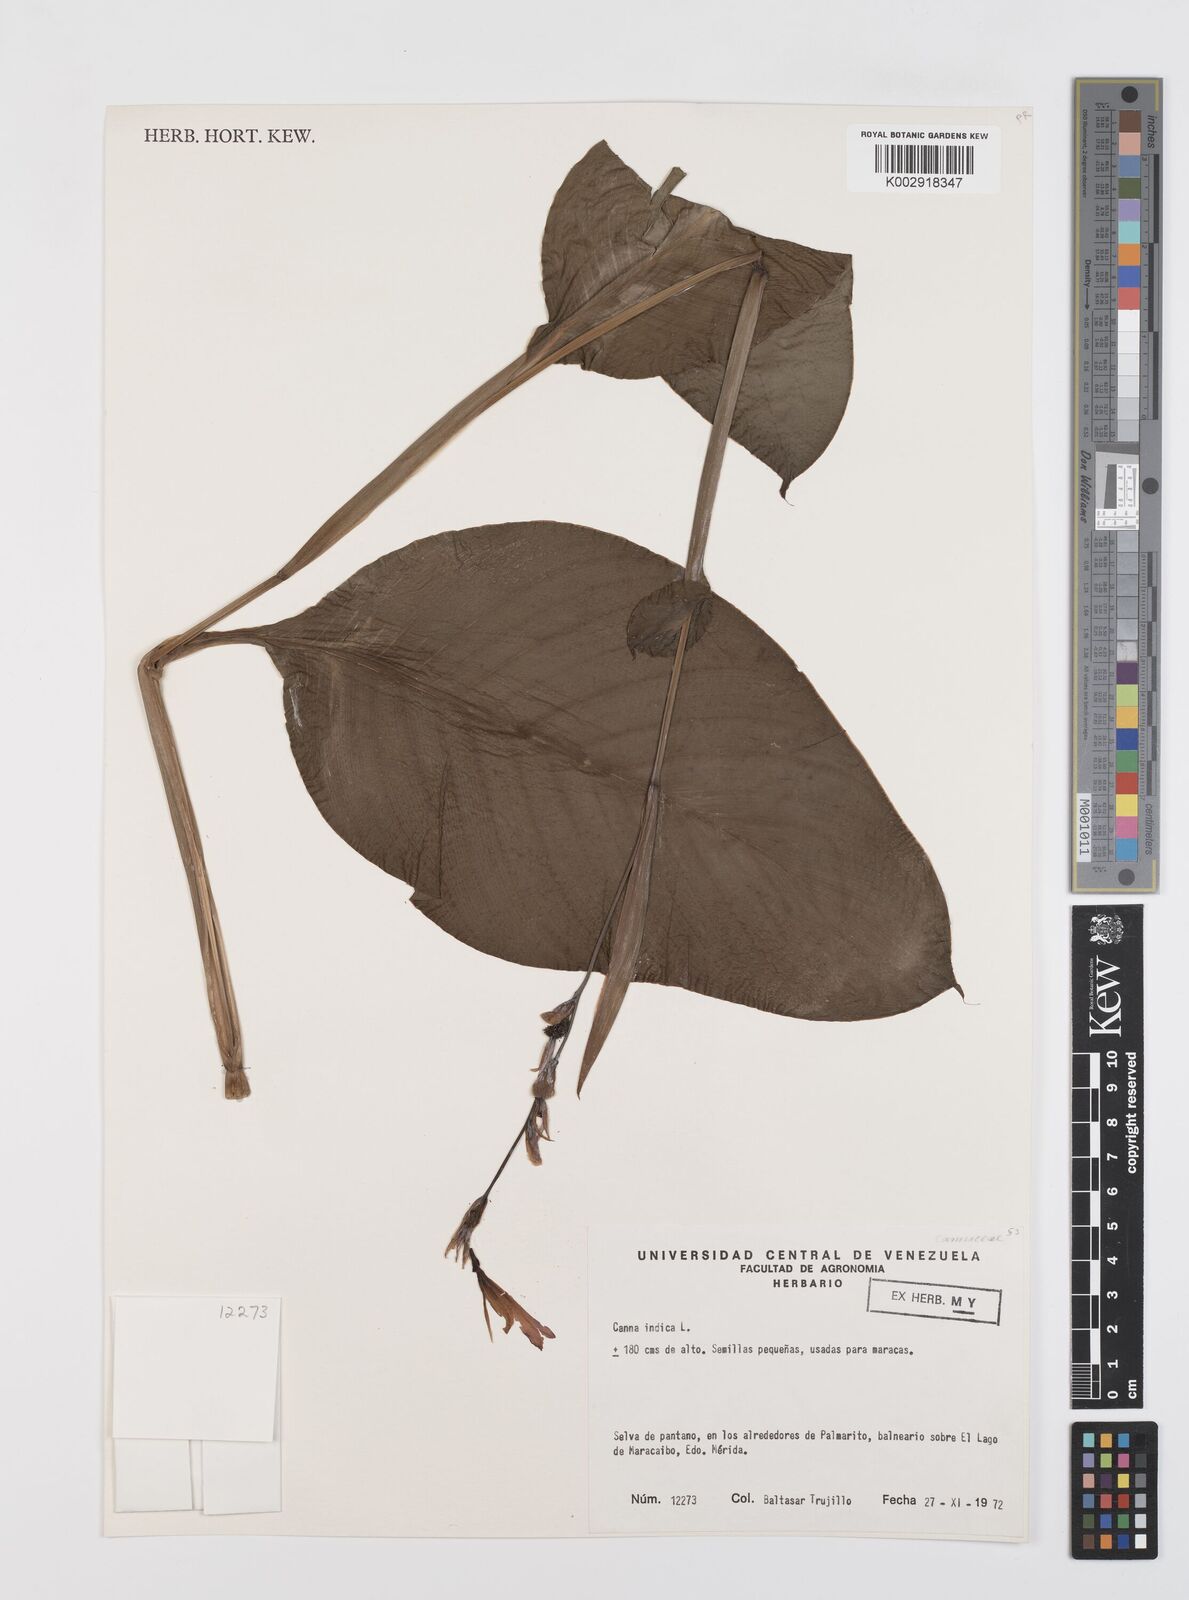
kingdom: Plantae
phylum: Tracheophyta
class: Liliopsida
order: Zingiberales
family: Cannaceae
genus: Canna
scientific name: Canna indica
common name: Indian shot
